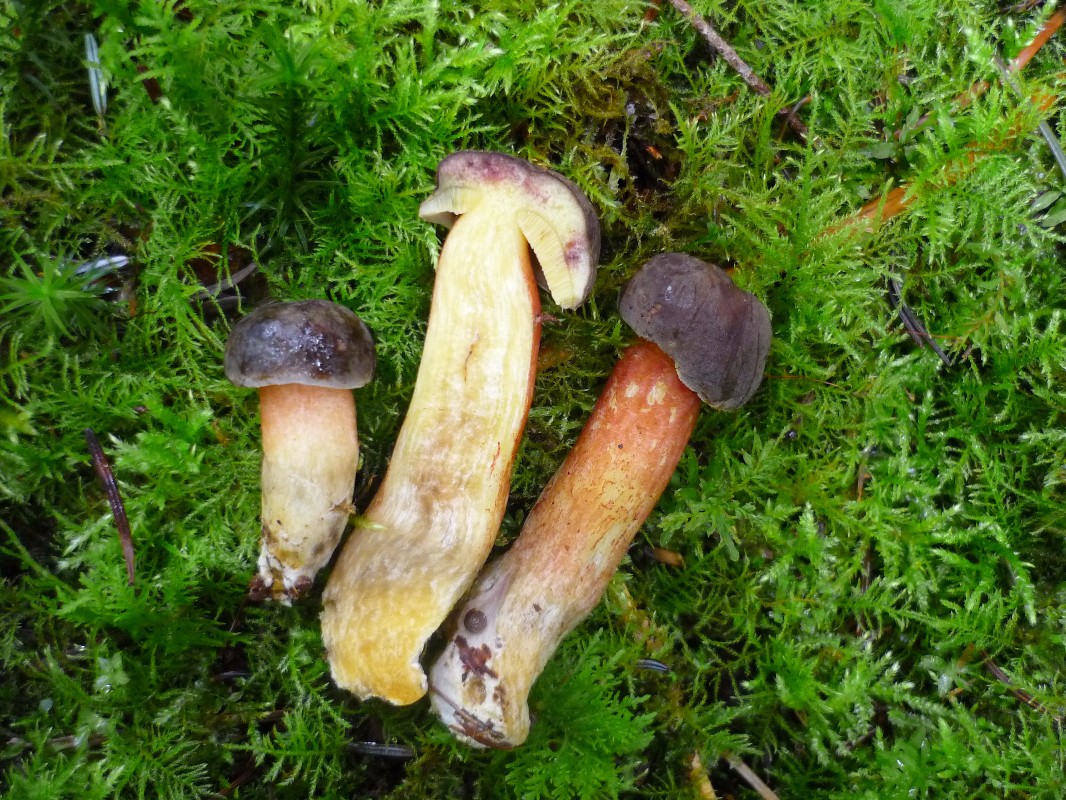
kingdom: Fungi
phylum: Basidiomycota
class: Agaricomycetes
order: Boletales
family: Boletaceae
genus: Xerocomellus
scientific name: Xerocomellus chrysenteron
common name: rødsprukken rørhat
